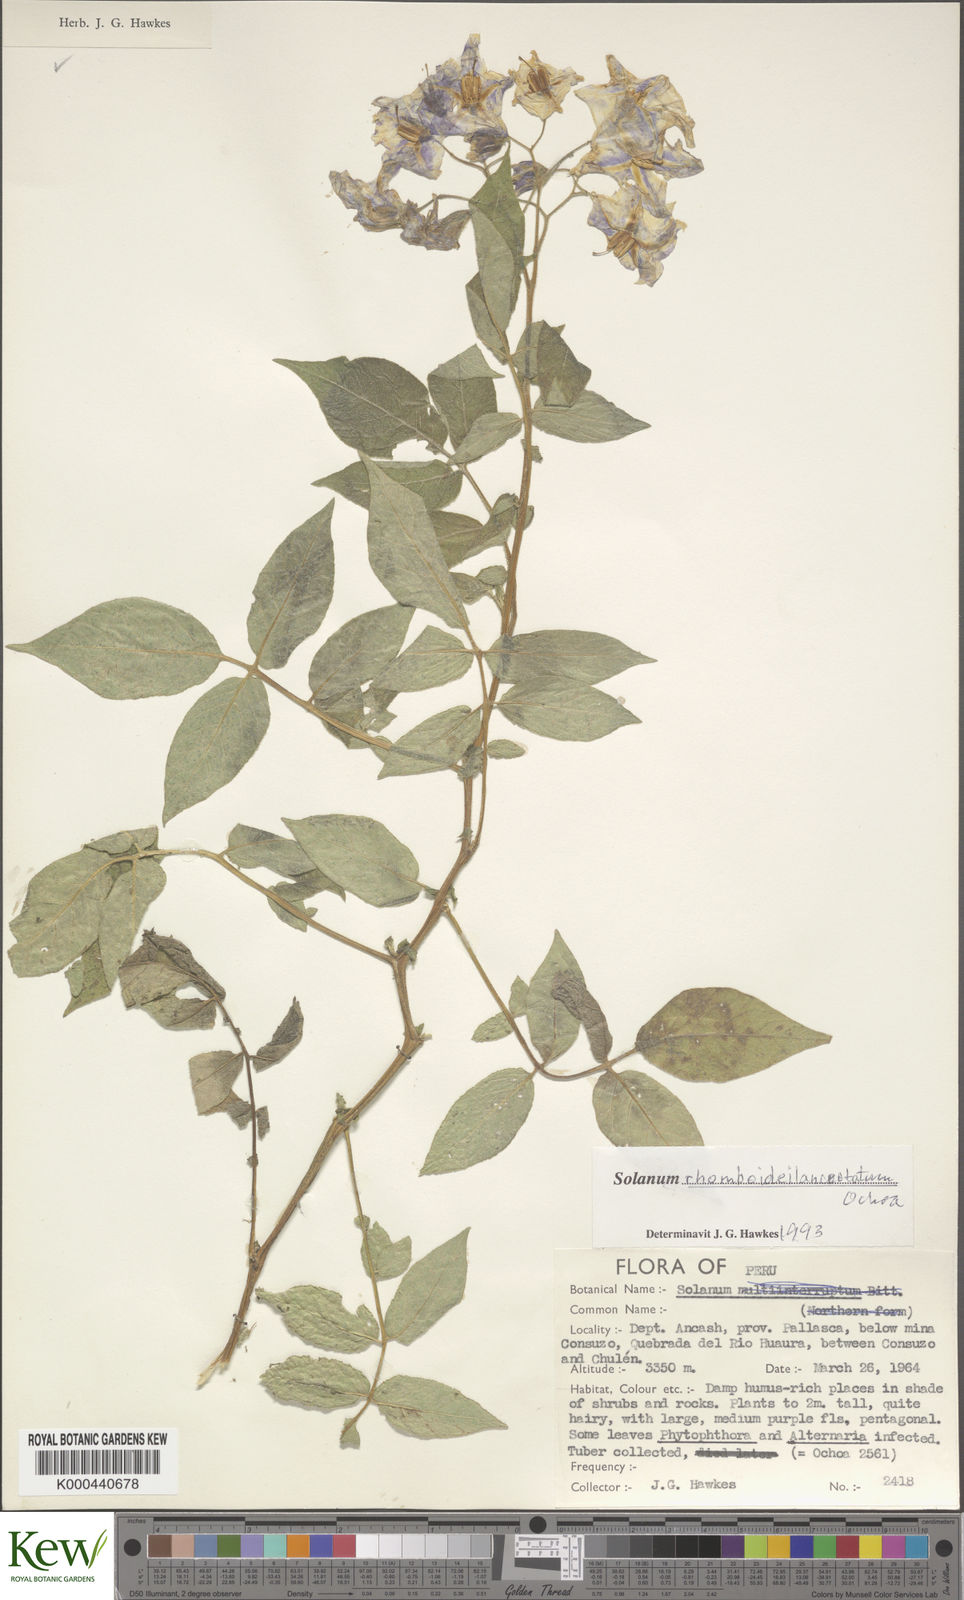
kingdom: Plantae
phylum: Tracheophyta
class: Magnoliopsida
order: Solanales
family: Solanaceae
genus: Solanum
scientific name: Solanum rhomboideilanceolatum
